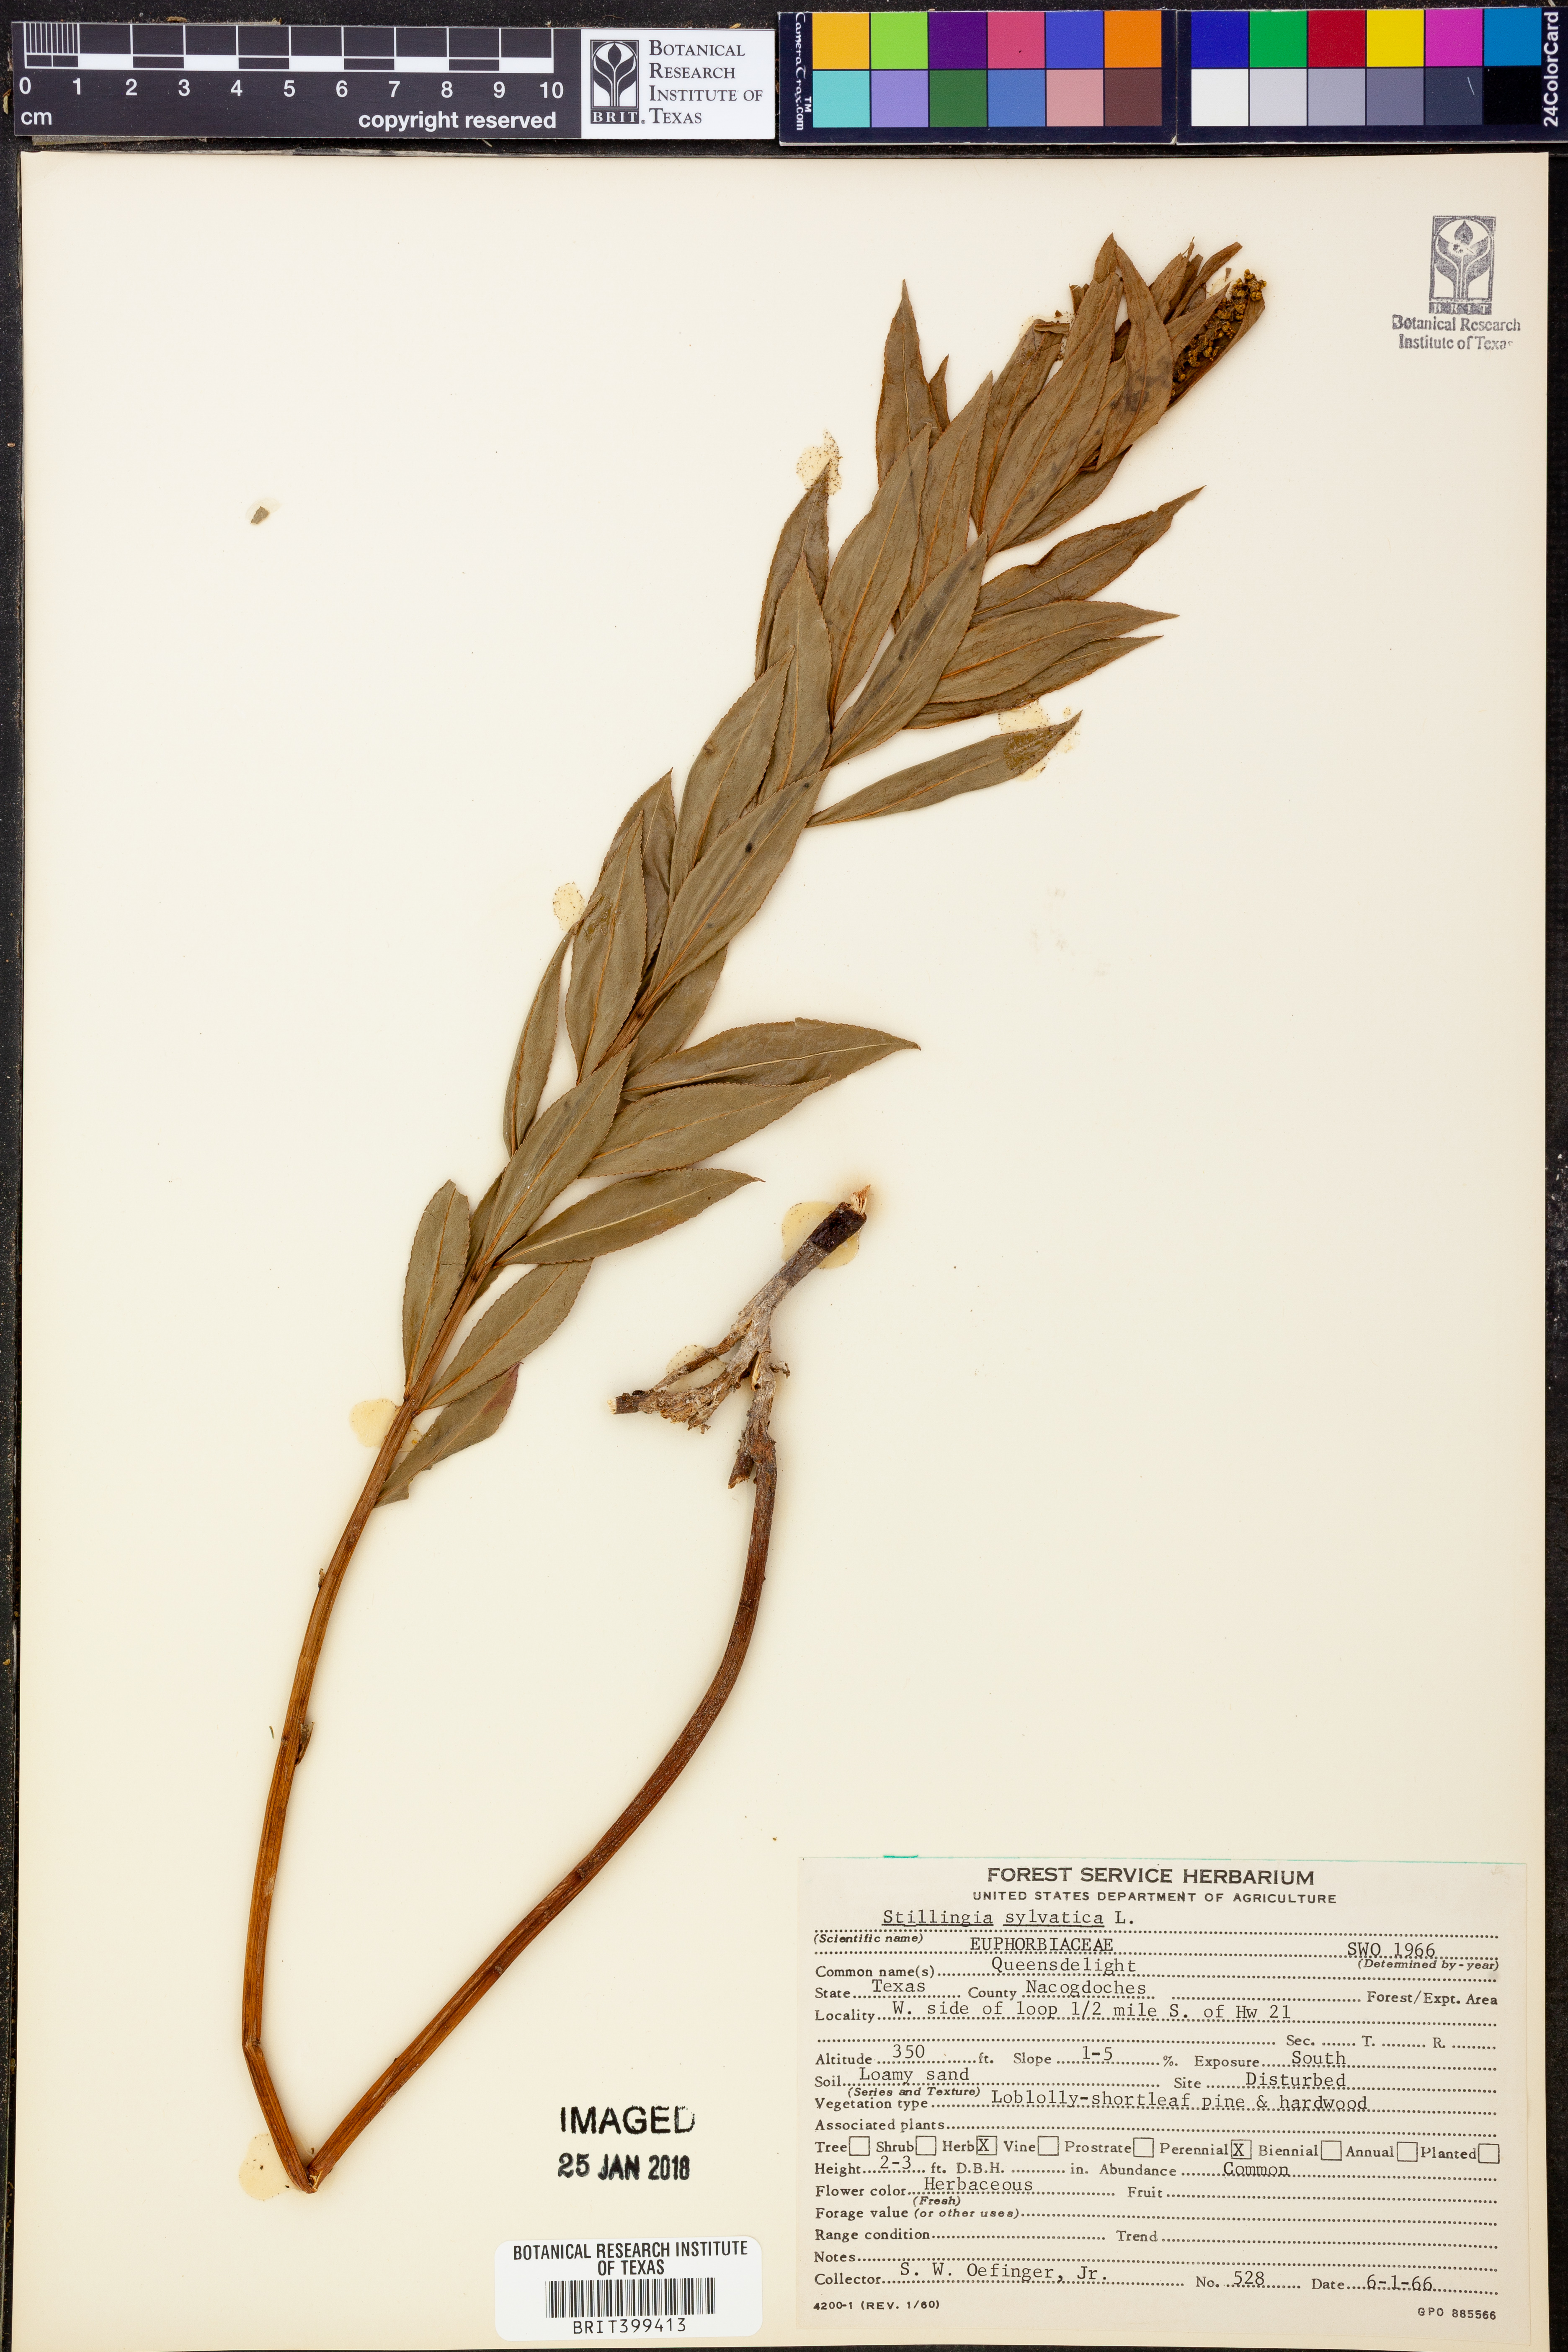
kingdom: Plantae
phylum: Tracheophyta
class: Magnoliopsida
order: Malpighiales
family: Euphorbiaceae
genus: Stillingia
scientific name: Stillingia sylvatica
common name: Queen's-delight
